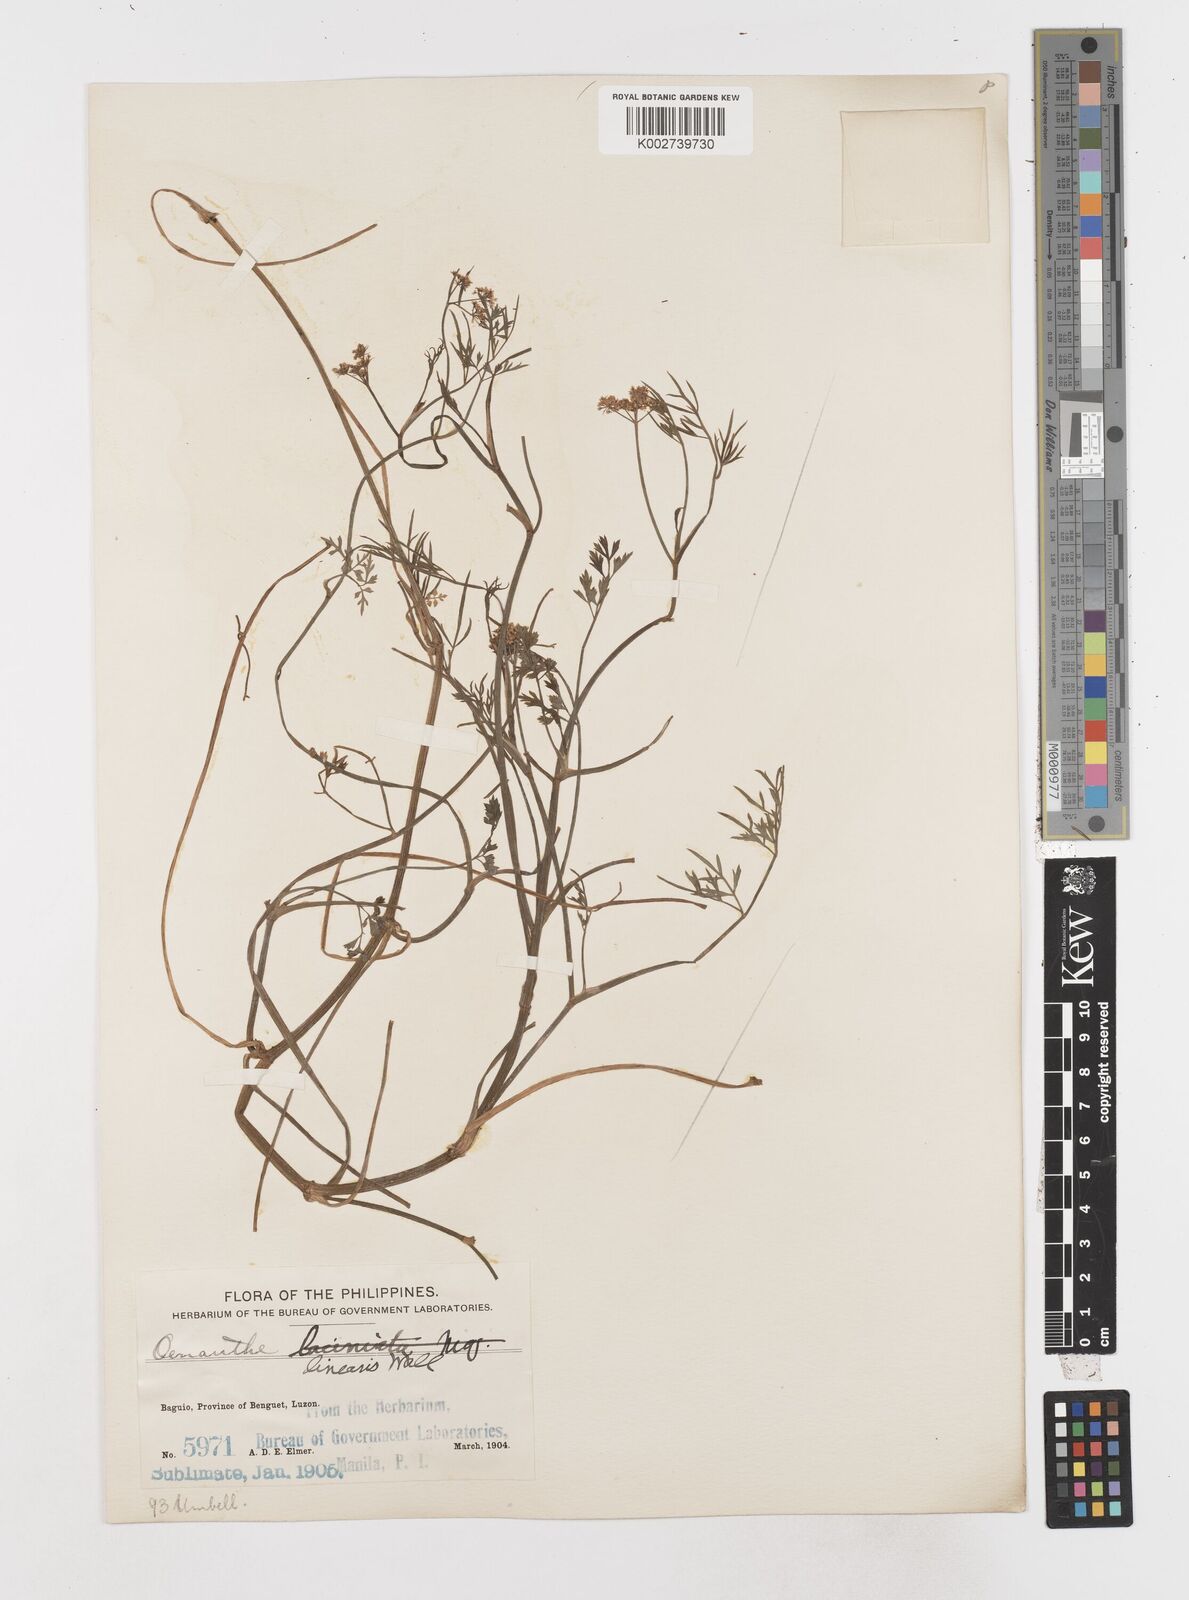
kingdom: Plantae
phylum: Tracheophyta
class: Magnoliopsida
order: Apiales
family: Apiaceae
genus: Oenanthe
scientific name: Oenanthe javanica
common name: Java water-dropwort
